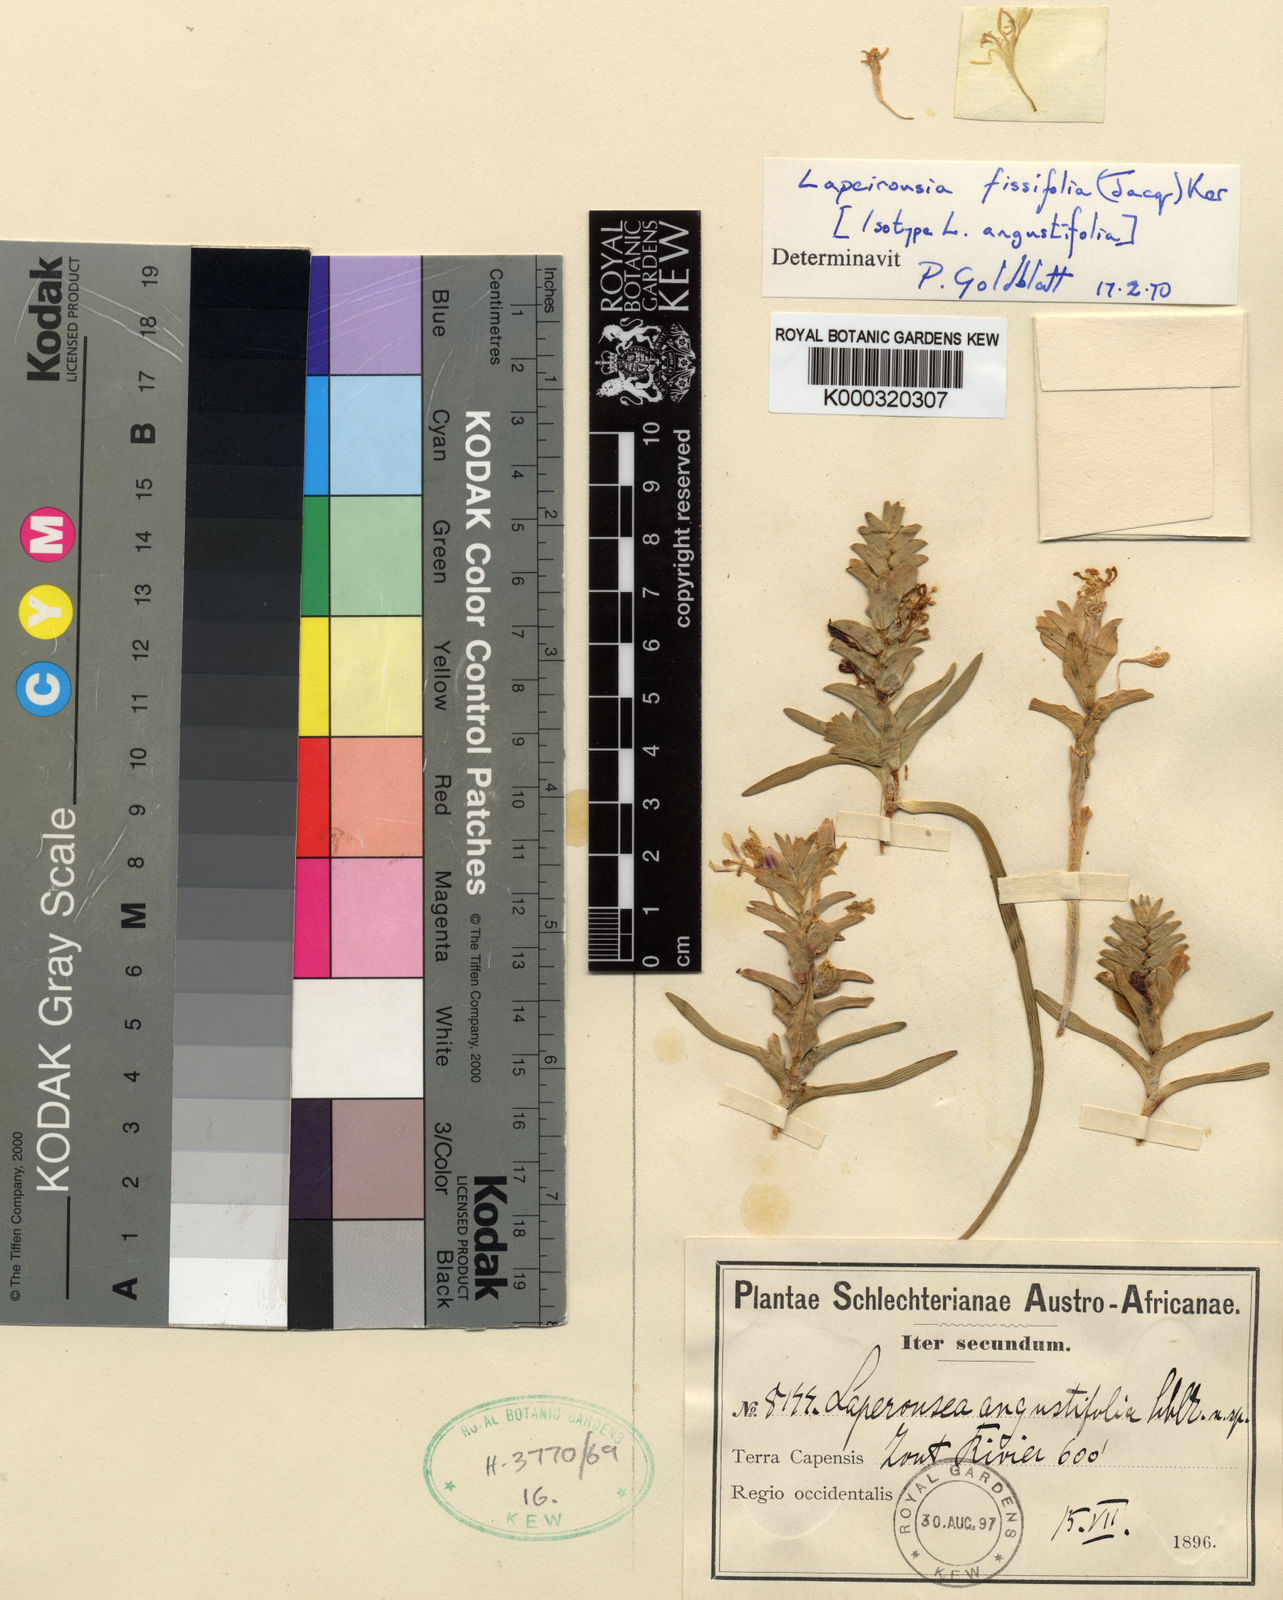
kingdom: Plantae
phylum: Tracheophyta
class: Liliopsida
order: Asparagales
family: Iridaceae
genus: Lapeirousia
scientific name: Lapeirousia pyramidalis
